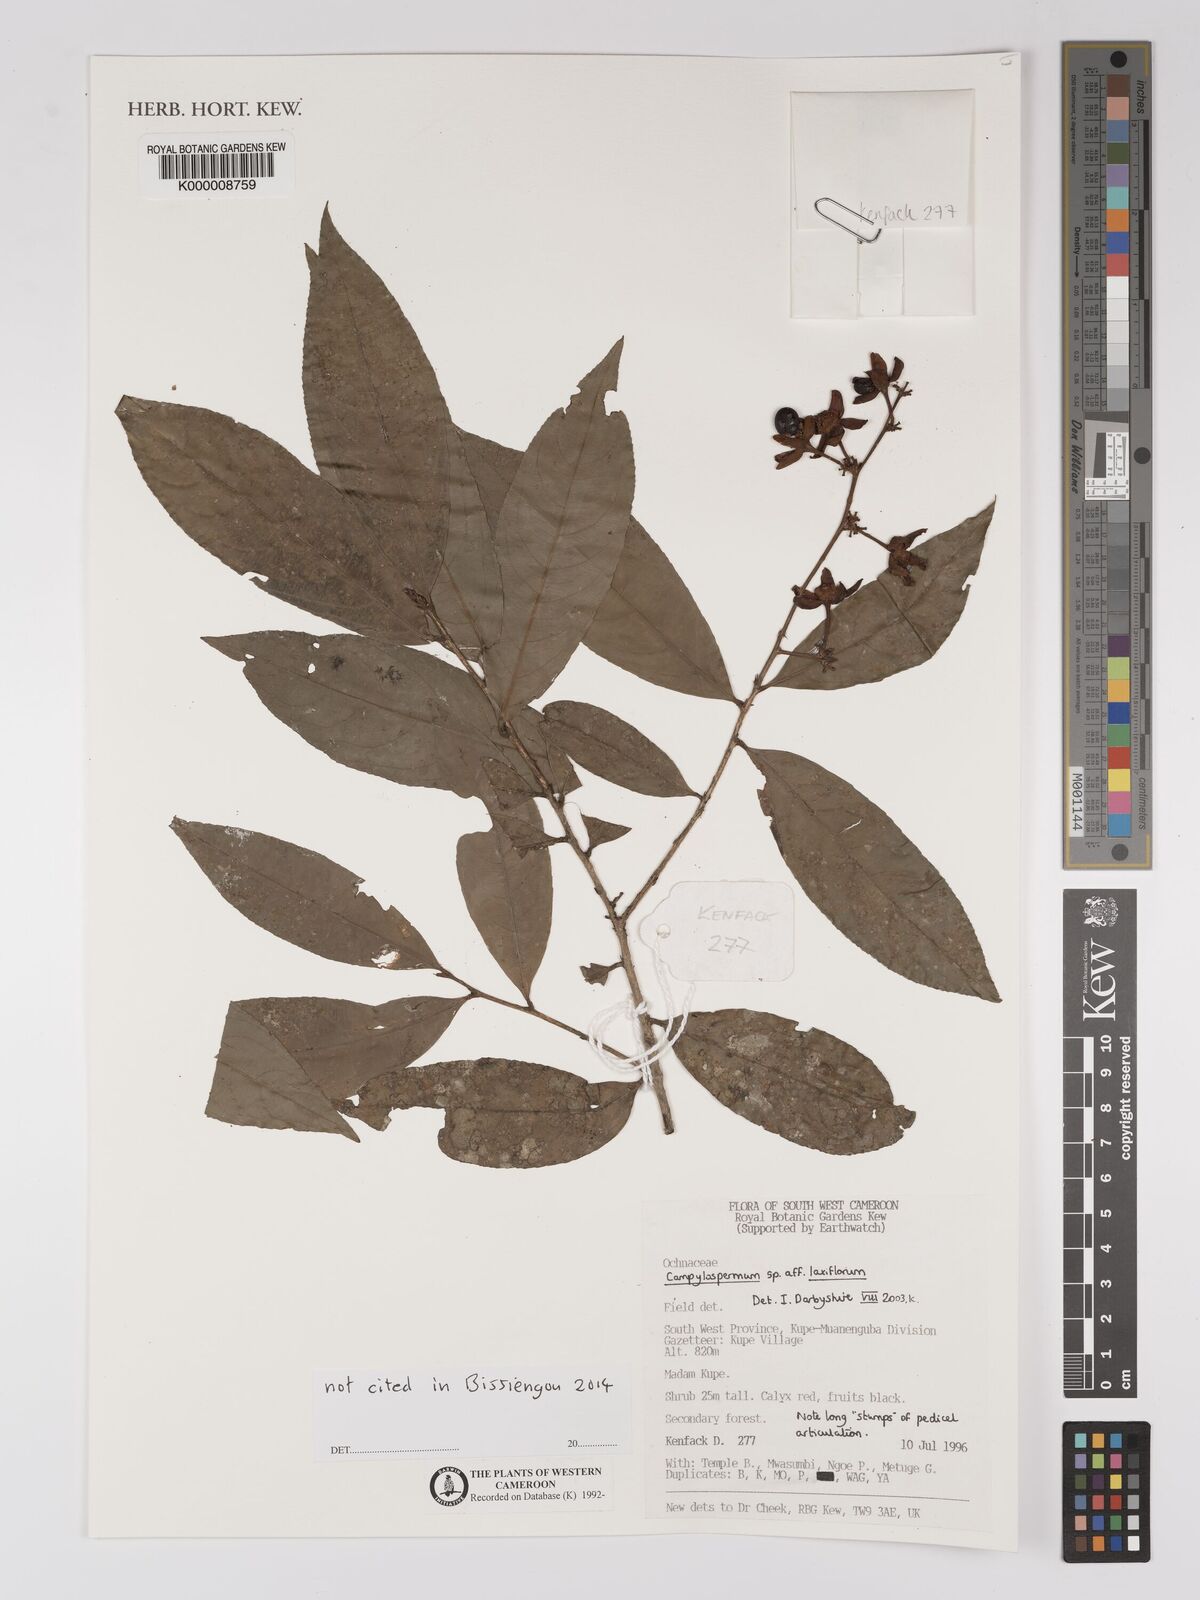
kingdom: Plantae
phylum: Tracheophyta
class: Magnoliopsida
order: Malpighiales
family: Ochnaceae
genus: Campylospermum
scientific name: Campylospermum laxiflorum
